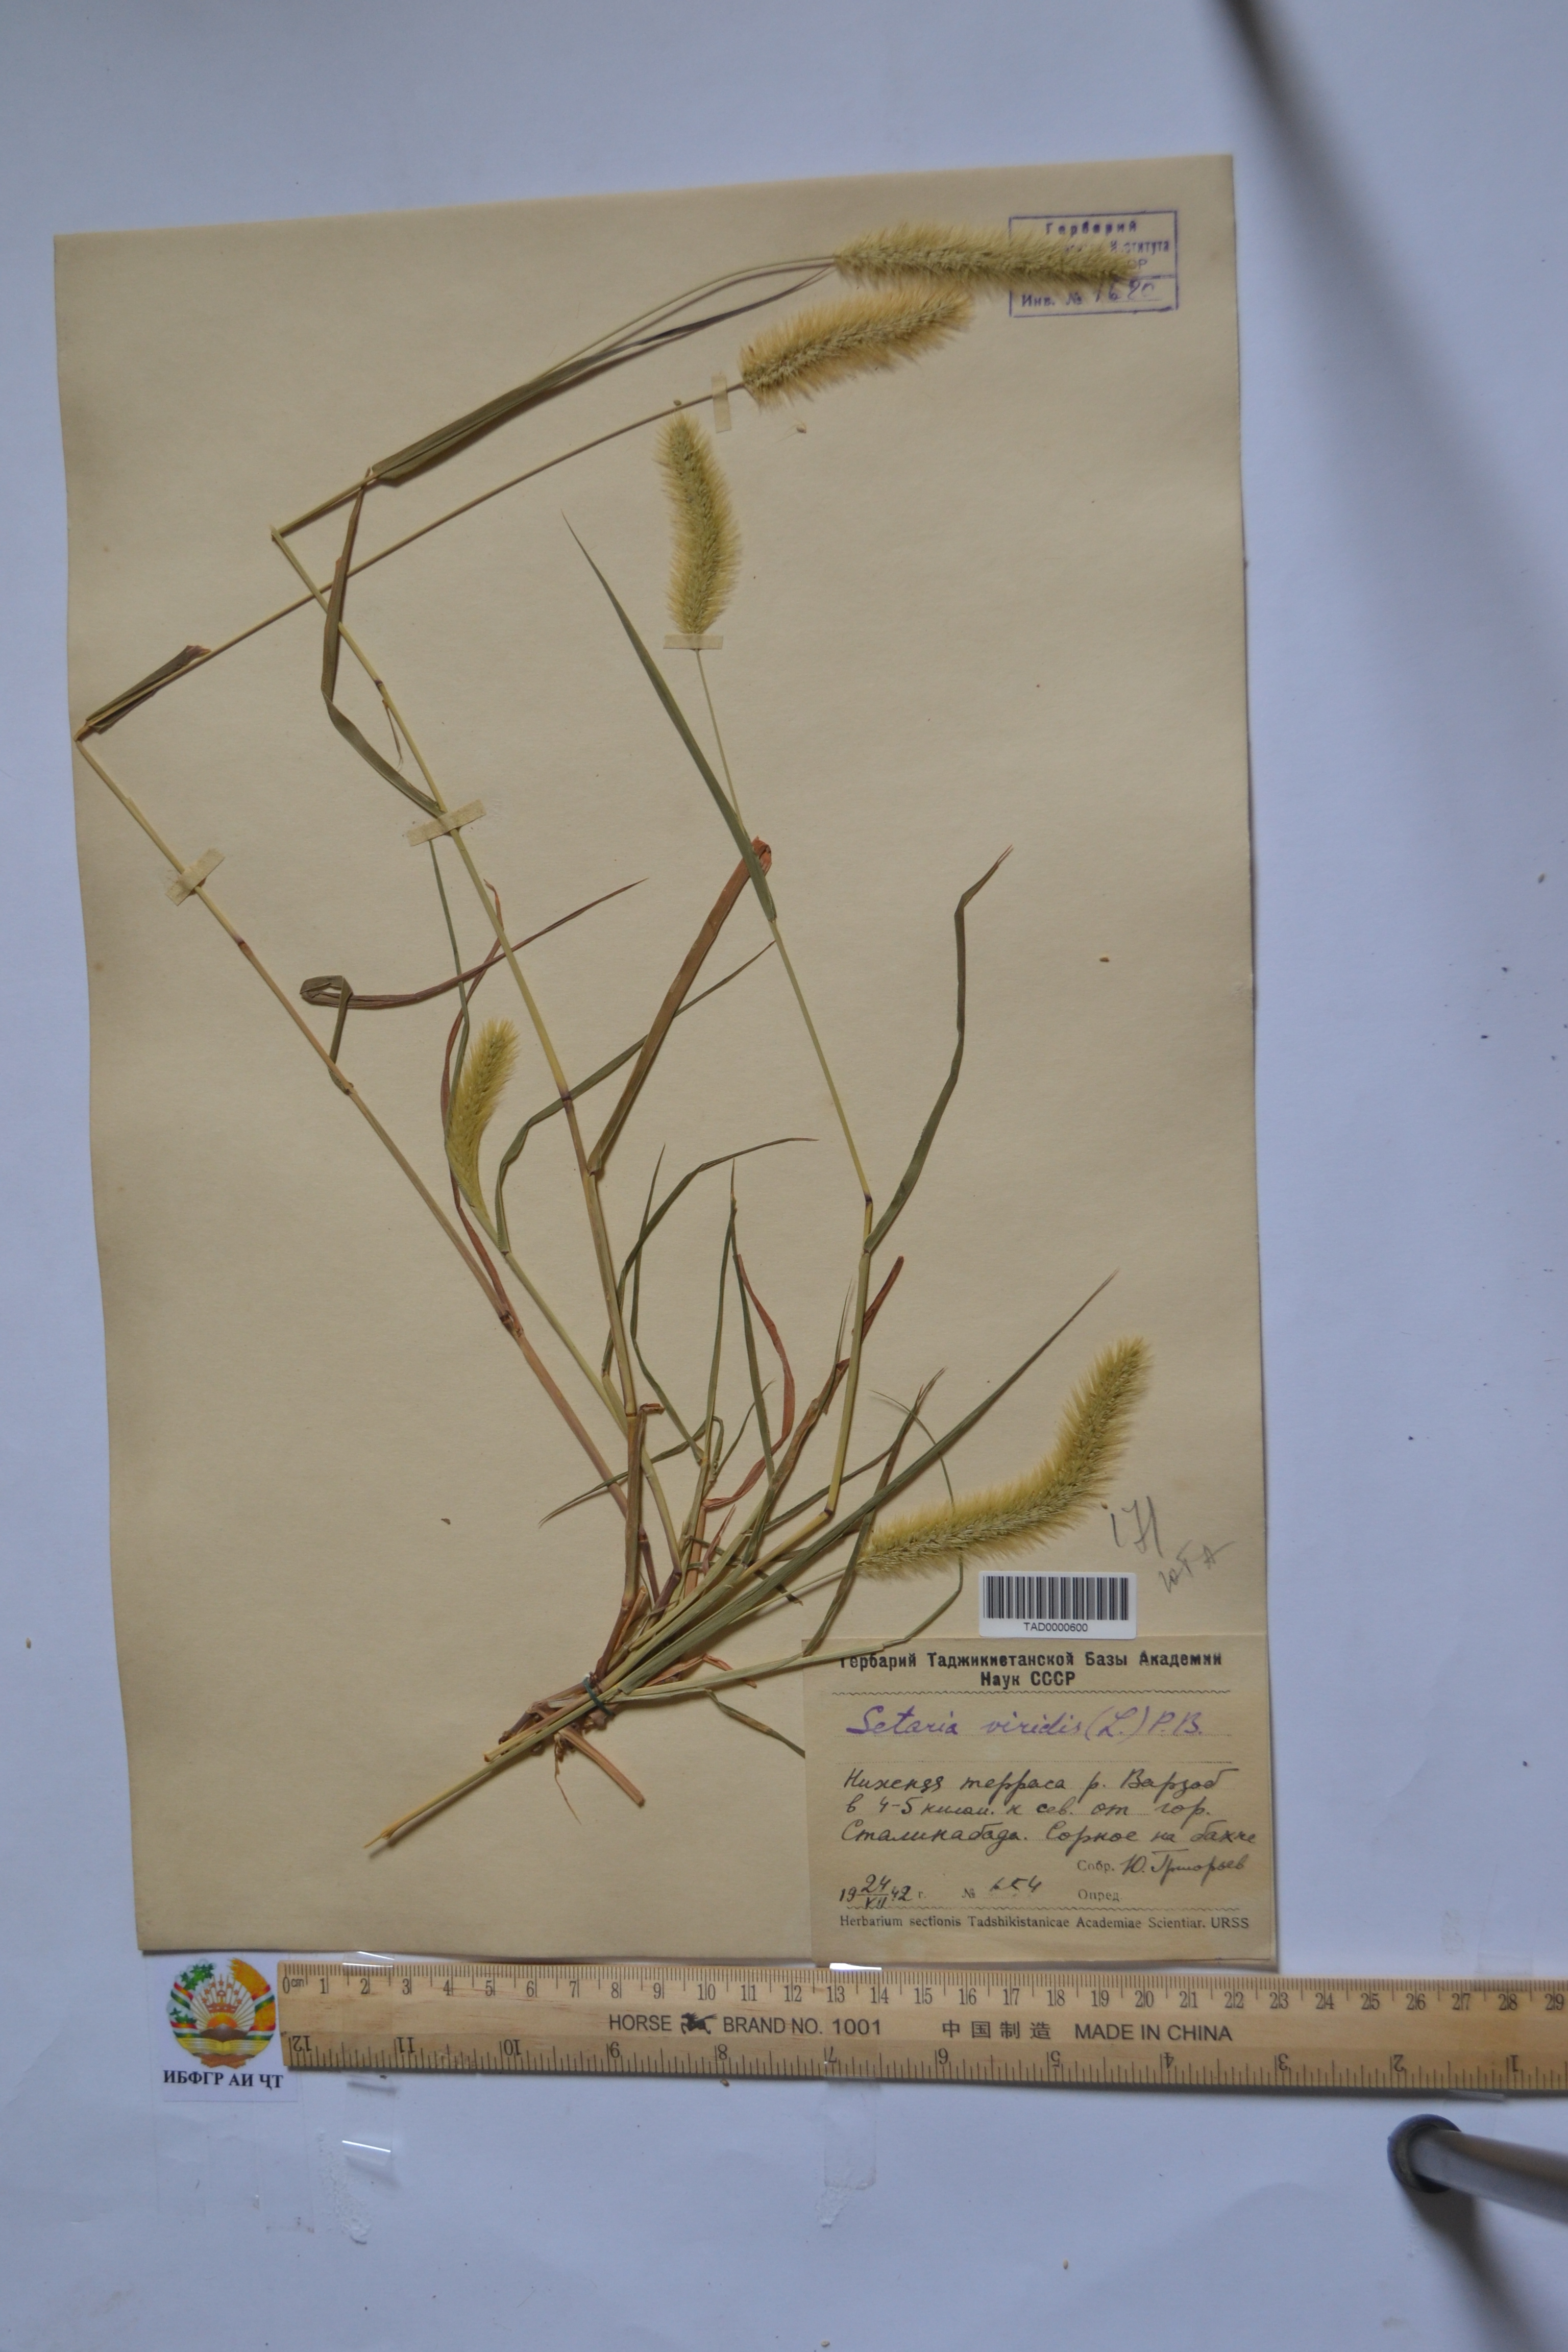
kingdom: Plantae
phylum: Tracheophyta
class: Liliopsida
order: Poales
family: Poaceae
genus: Setaria
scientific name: Setaria viridis
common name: Green bristlegrass
